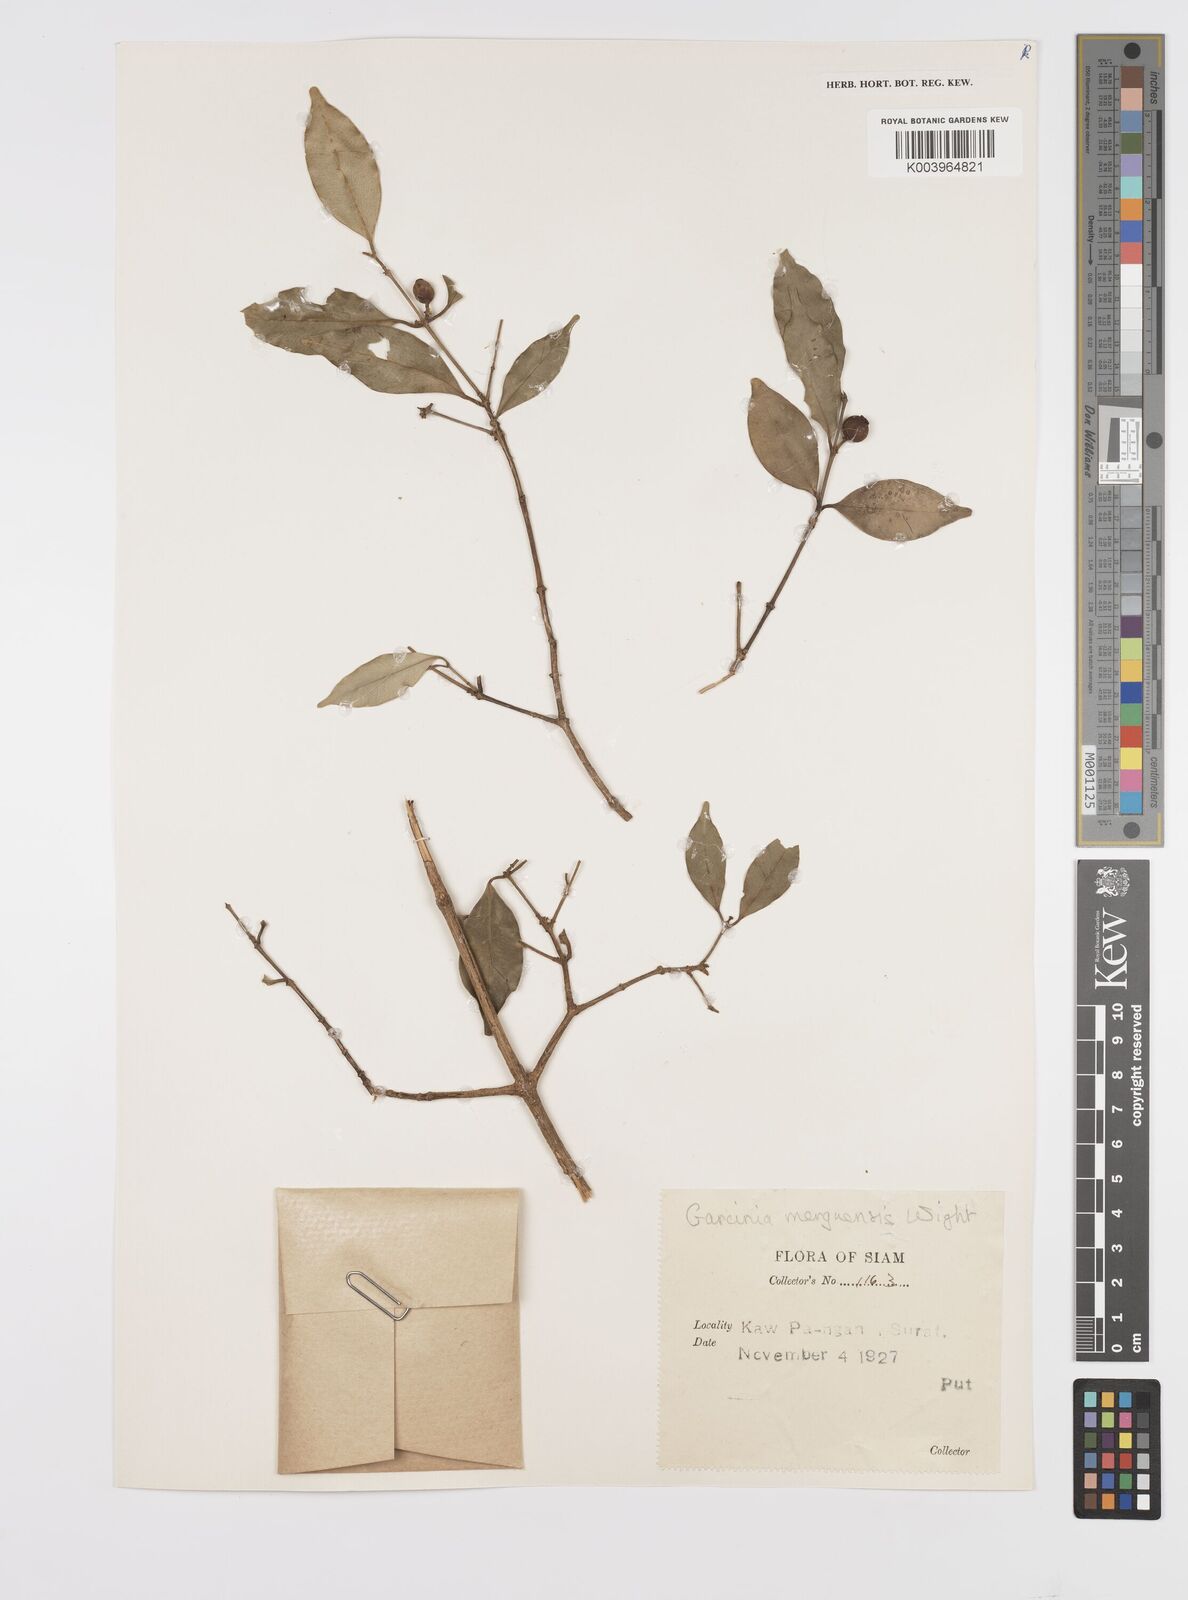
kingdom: Plantae
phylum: Tracheophyta
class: Magnoliopsida
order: Malpighiales
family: Clusiaceae
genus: Garcinia
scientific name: Garcinia
